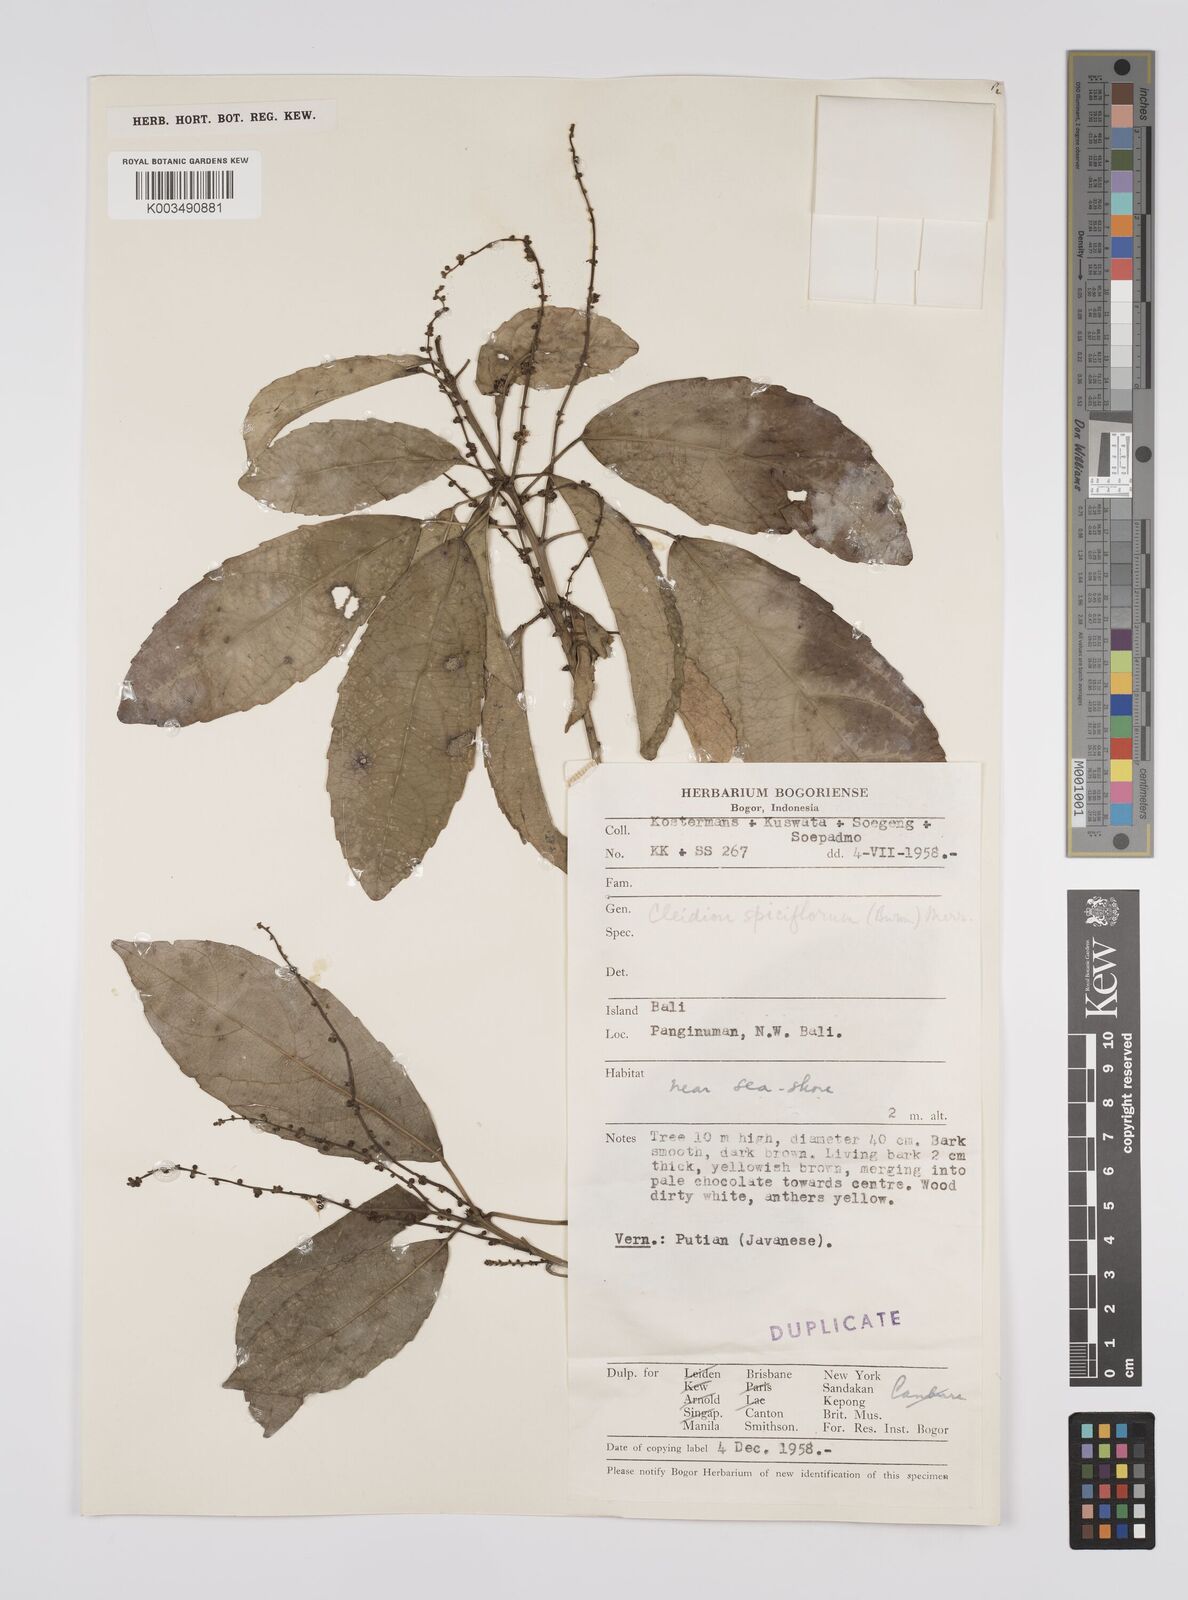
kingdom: Plantae
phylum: Tracheophyta
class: Magnoliopsida
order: Malpighiales
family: Euphorbiaceae
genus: Acalypha
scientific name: Acalypha spiciflora
